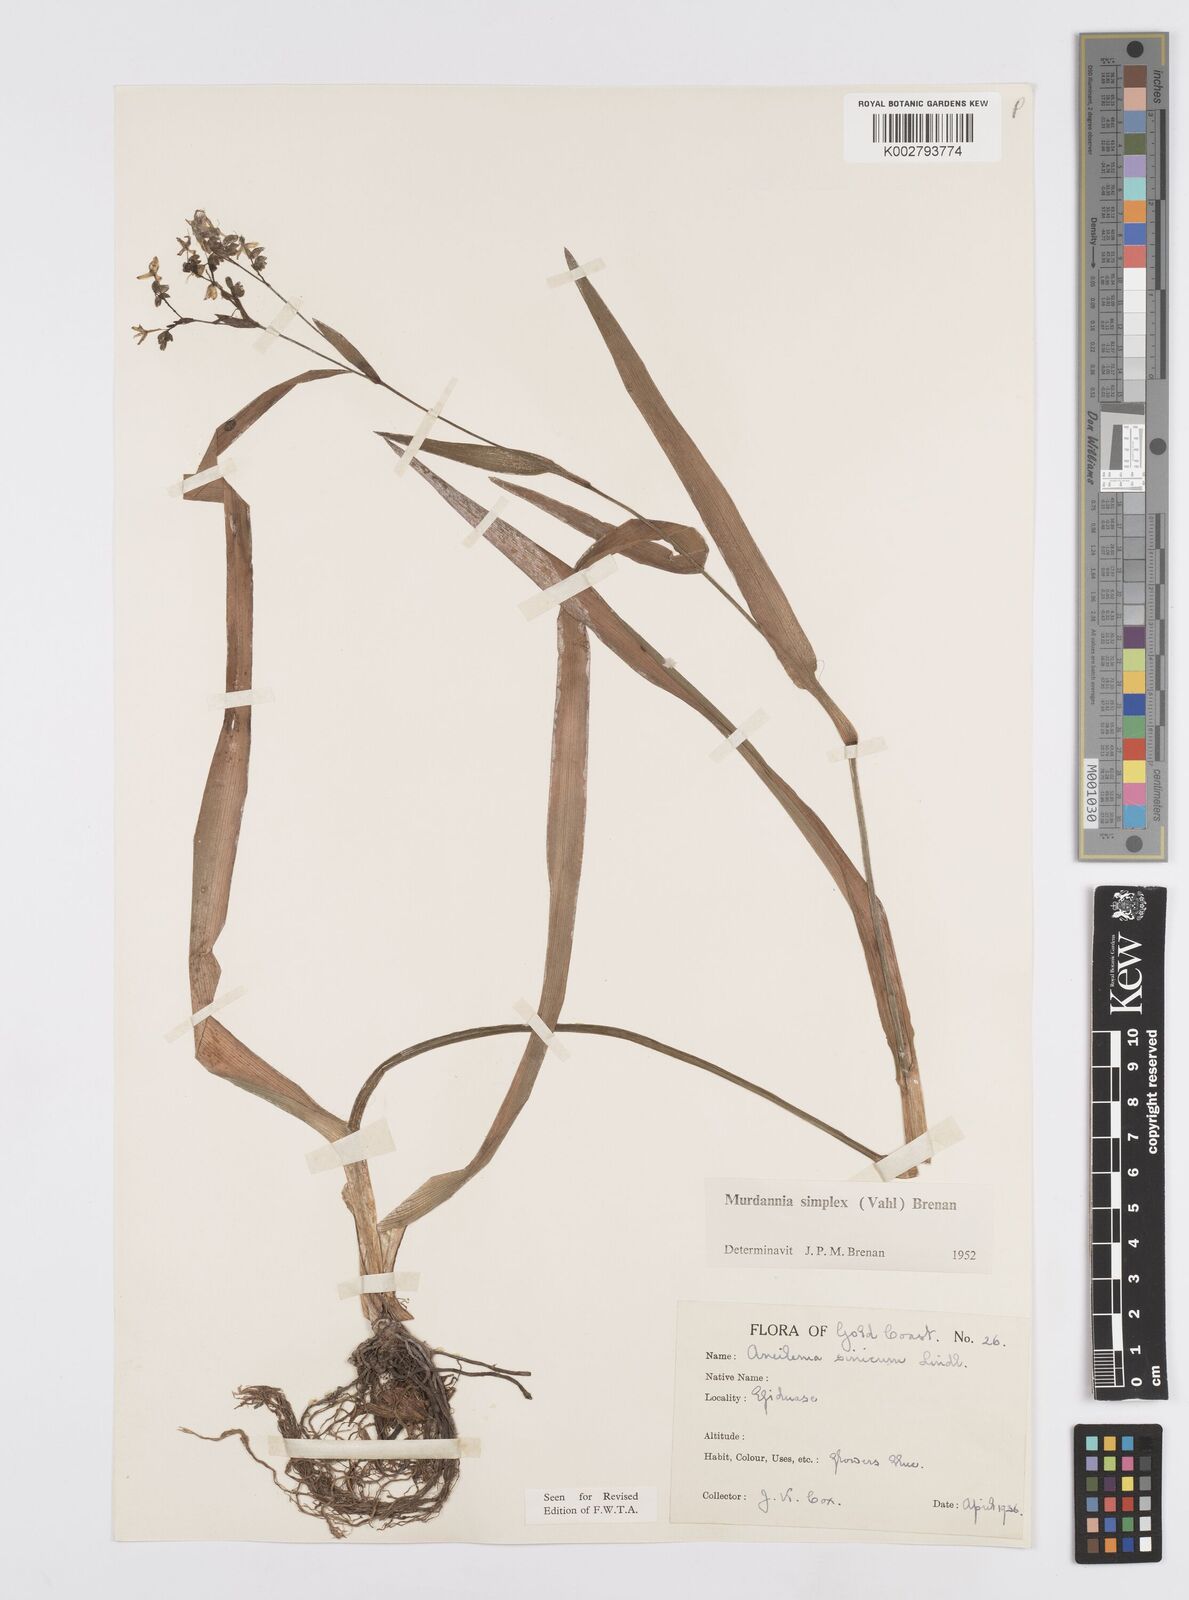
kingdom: Plantae
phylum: Tracheophyta
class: Liliopsida
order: Commelinales
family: Commelinaceae
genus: Murdannia
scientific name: Murdannia simplex
